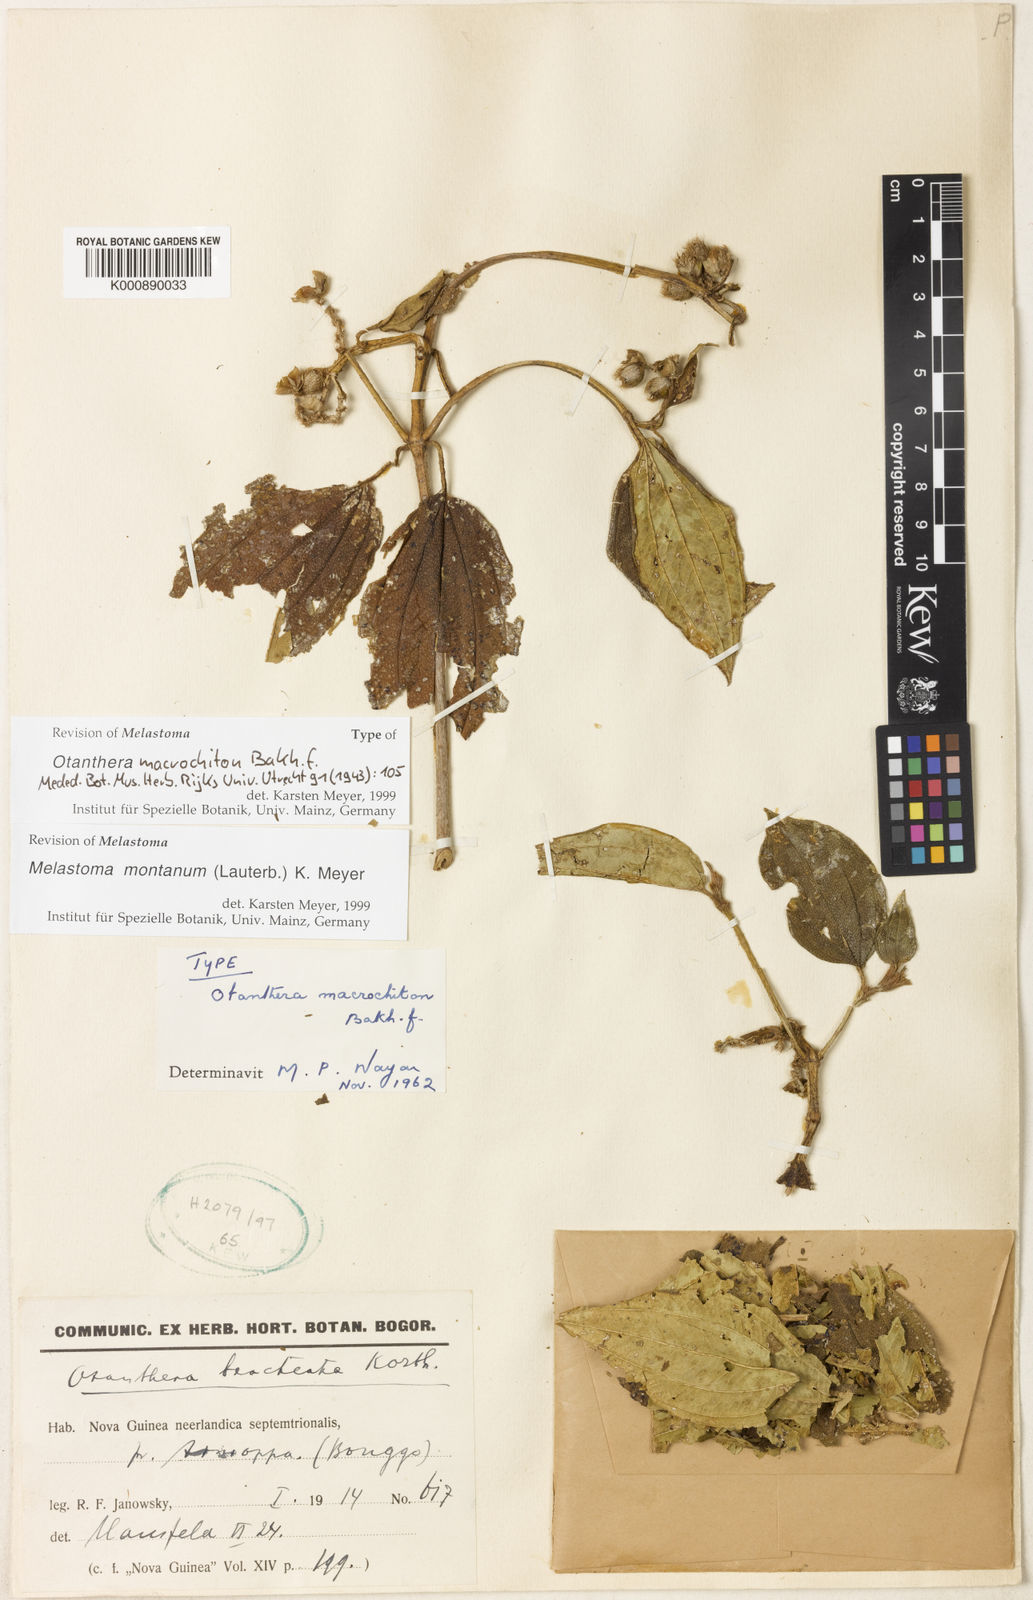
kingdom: Plantae
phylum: Tracheophyta
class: Magnoliopsida
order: Myrtales
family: Melastomataceae
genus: Melastoma
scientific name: Melastoma malabathricum
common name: Indian-rhododendron
